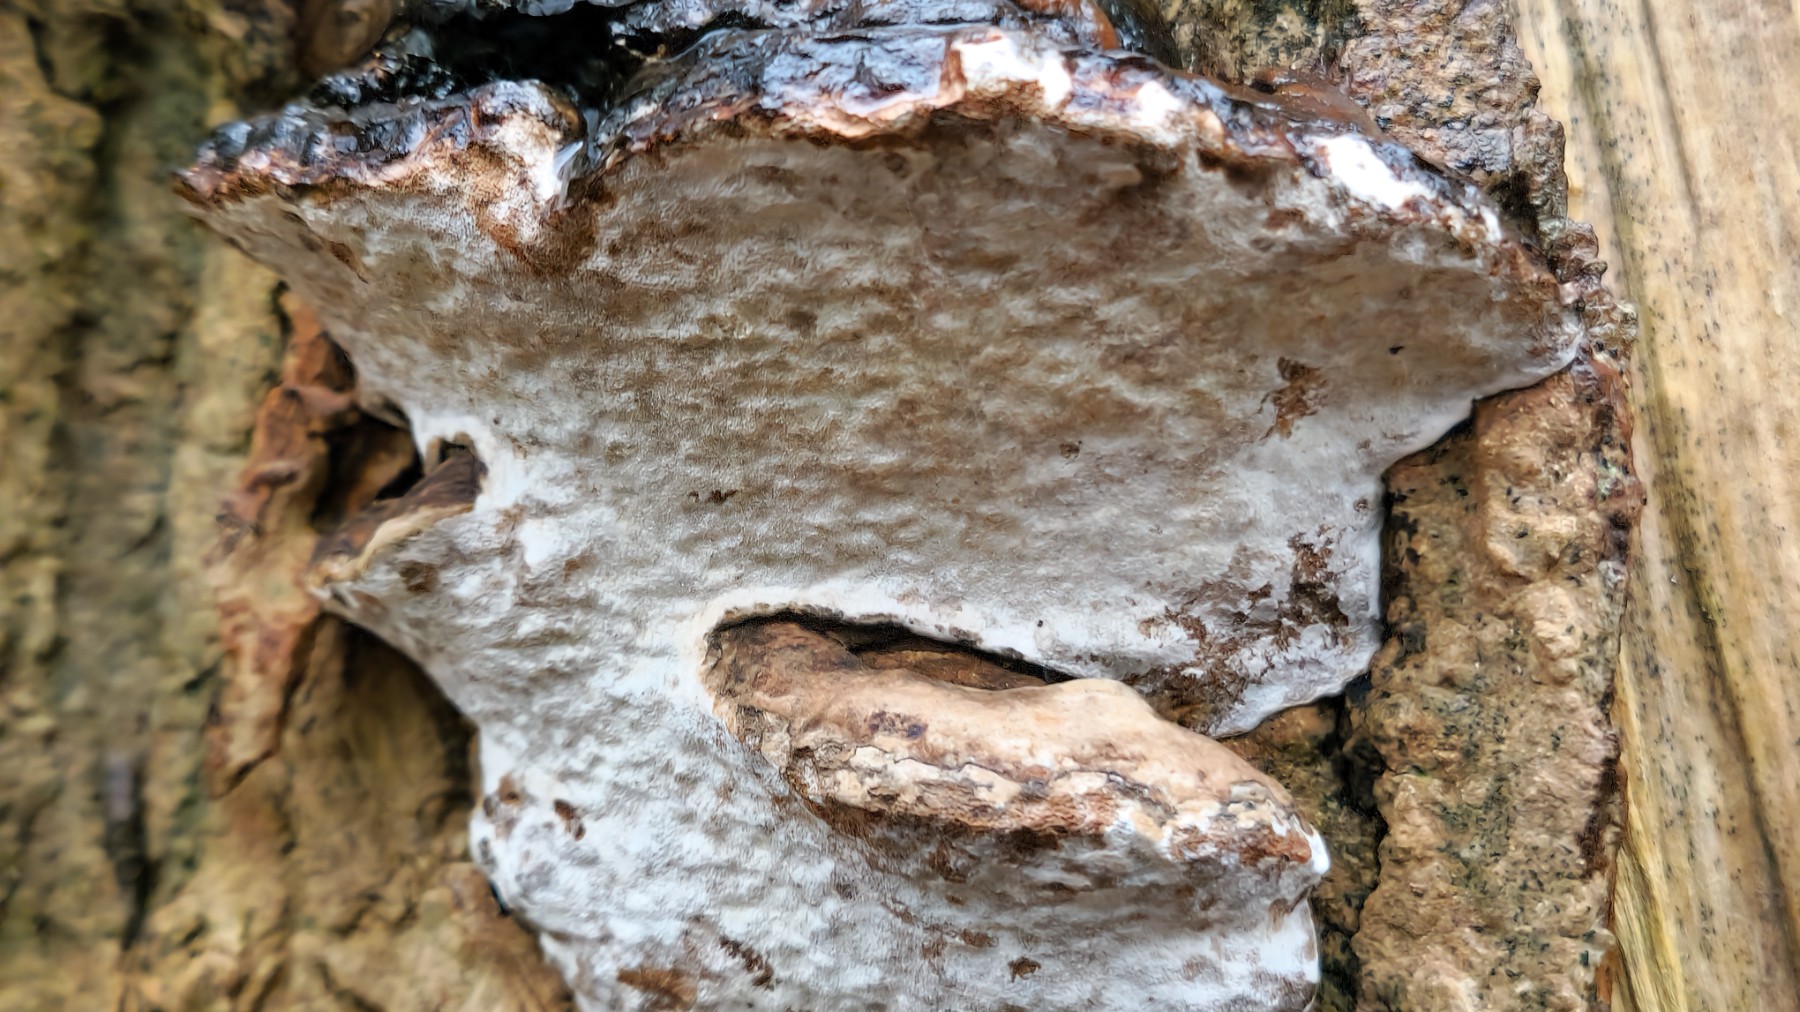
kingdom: Fungi
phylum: Basidiomycota
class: Agaricomycetes
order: Polyporales
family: Polyporaceae
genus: Ganoderma
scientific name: Ganoderma
